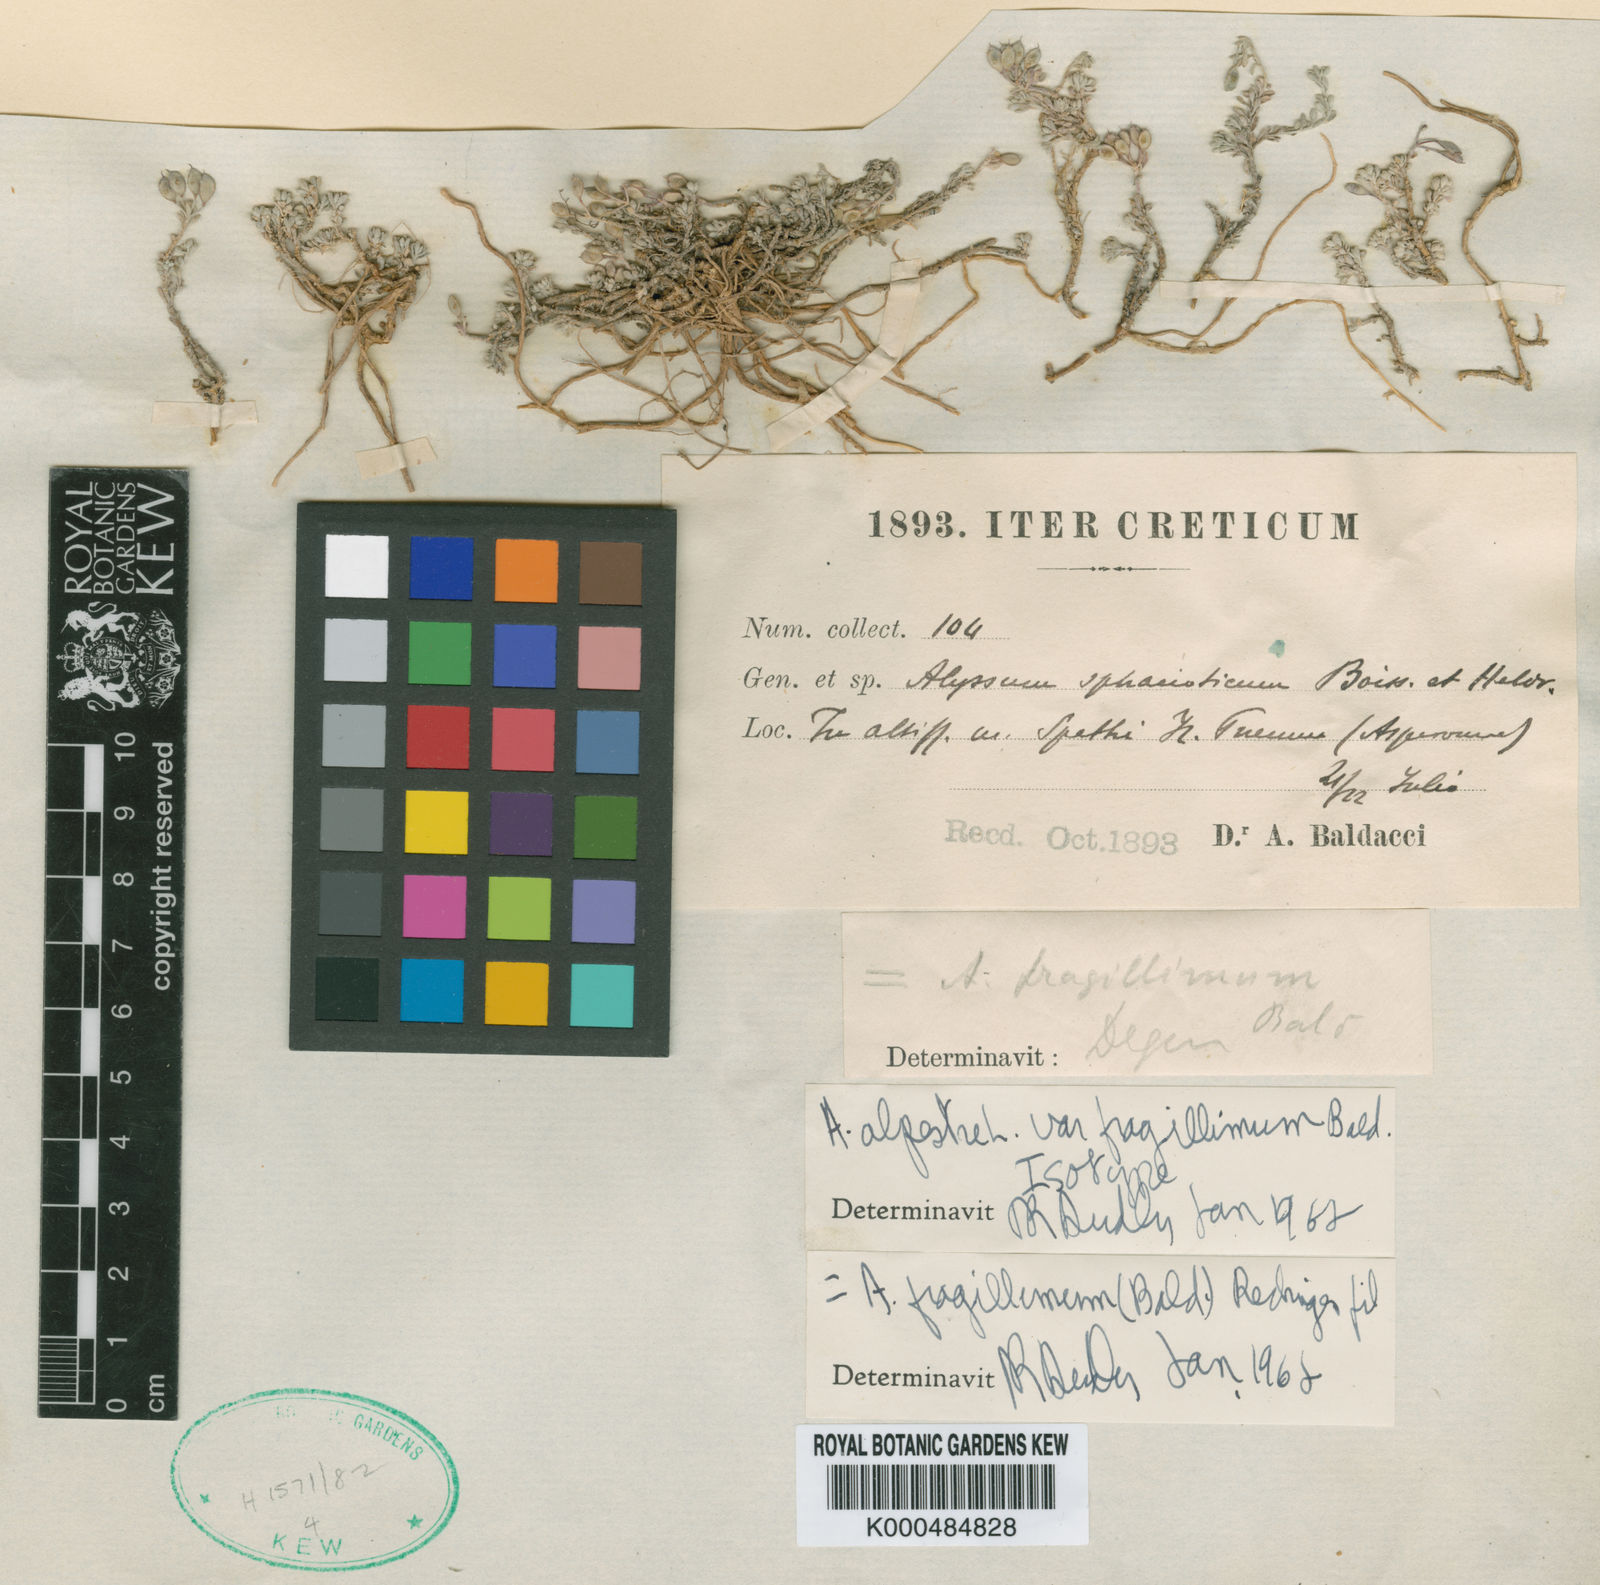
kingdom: Plantae
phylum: Tracheophyta
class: Magnoliopsida
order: Brassicales
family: Brassicaceae
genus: Odontarrhena
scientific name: Odontarrhena fragillima
